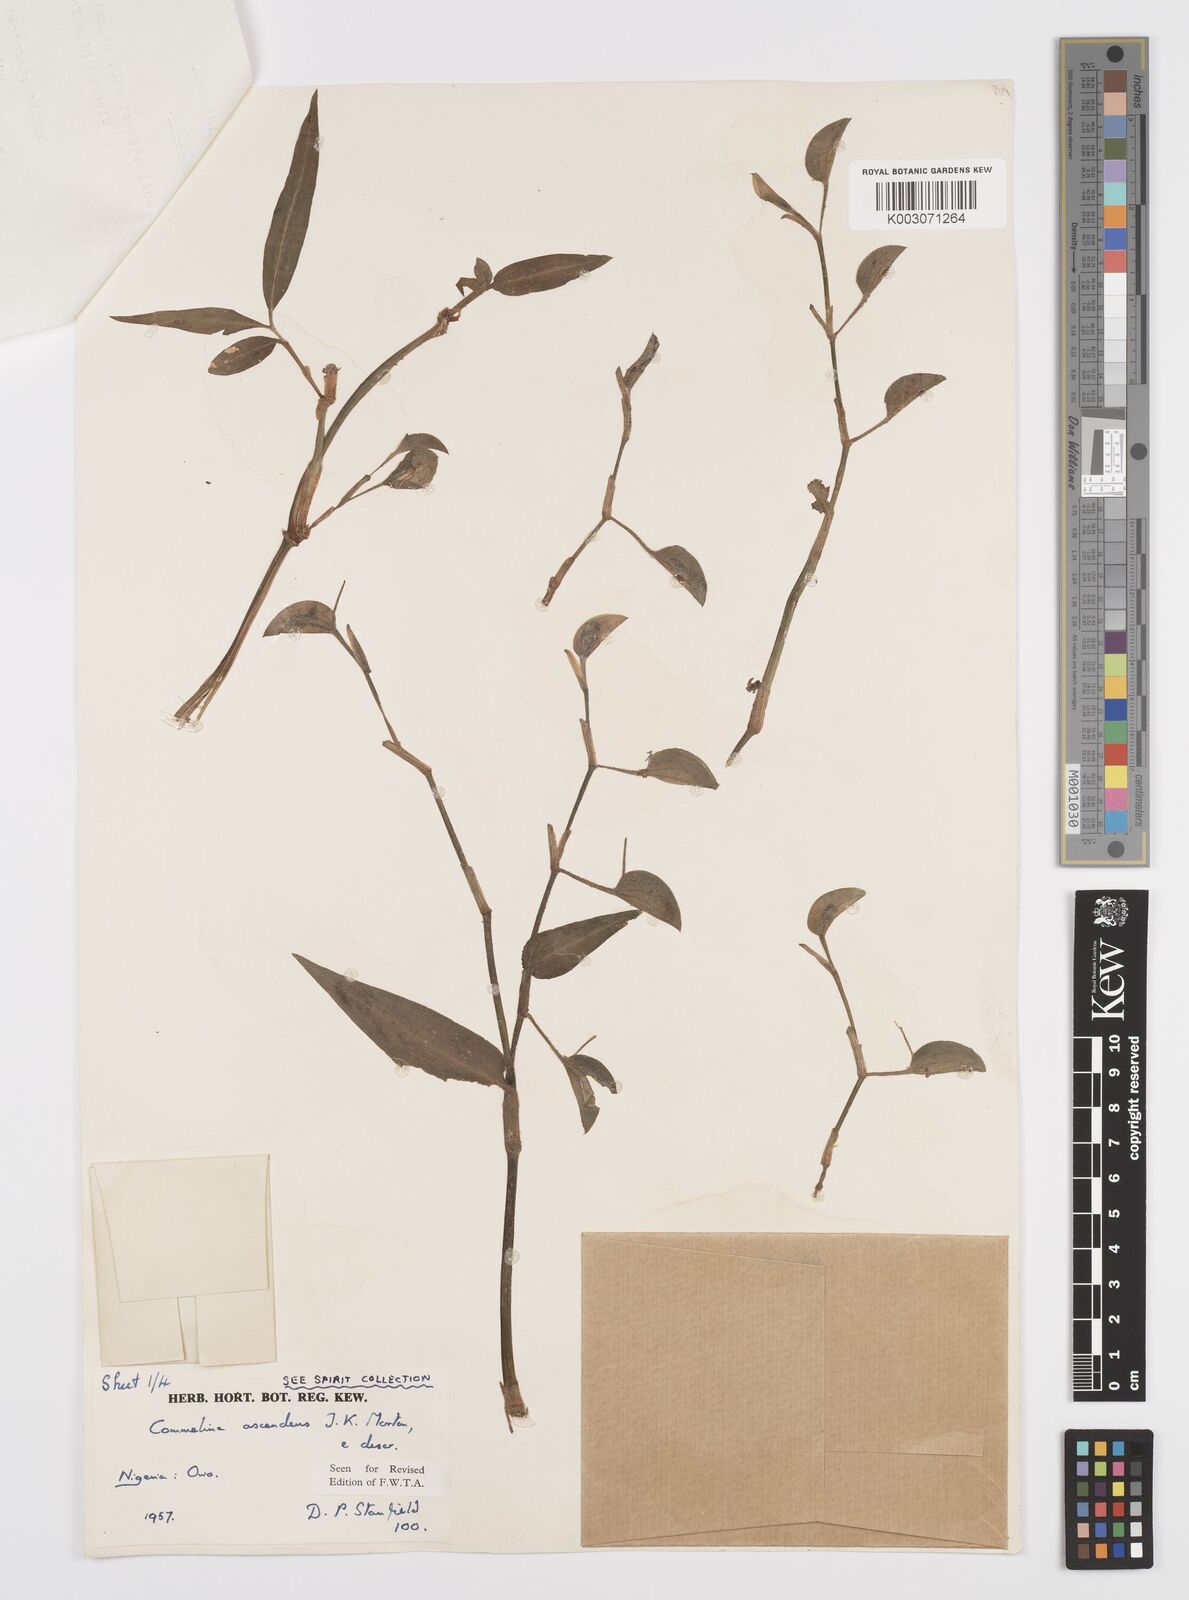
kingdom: Plantae
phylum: Tracheophyta
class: Liliopsida
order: Commelinales
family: Commelinaceae
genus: Commelina
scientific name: Commelina ascendens
